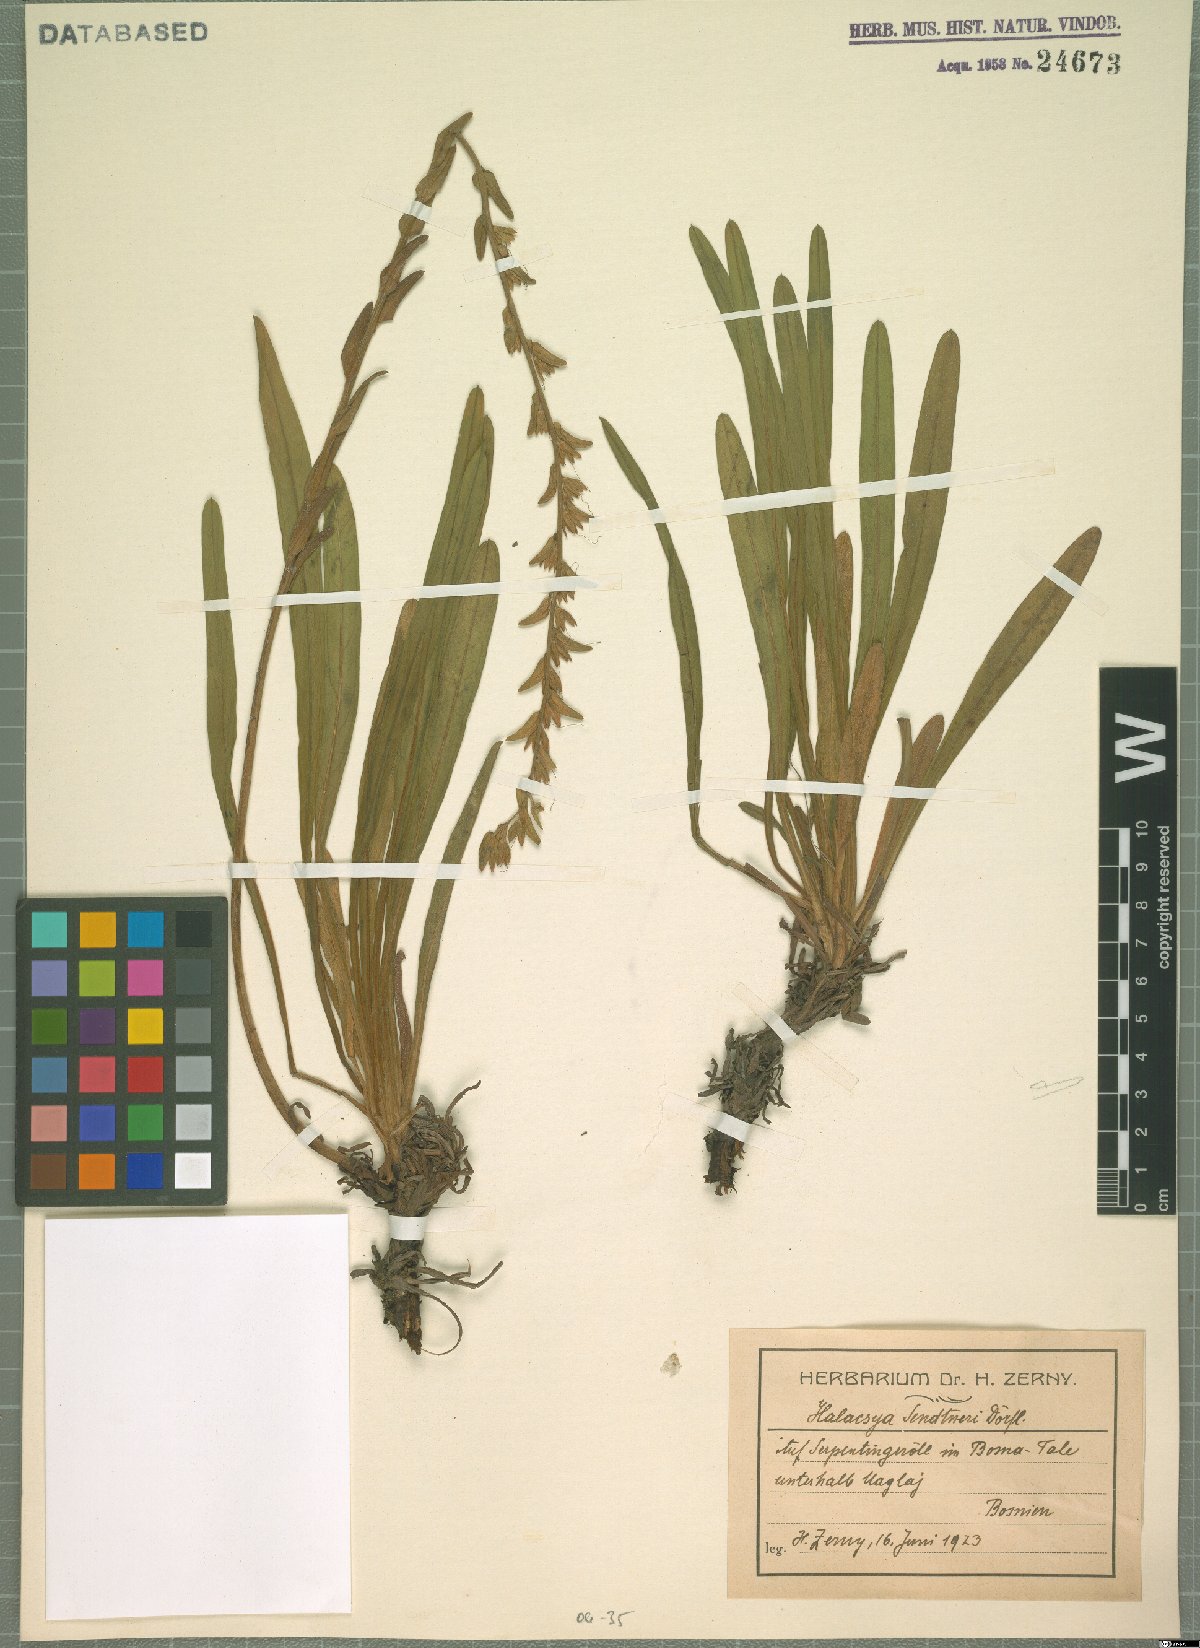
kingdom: Plantae
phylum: Tracheophyta
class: Magnoliopsida
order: Boraginales
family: Boraginaceae
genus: Halacsya
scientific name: Halacsya sendtneri
